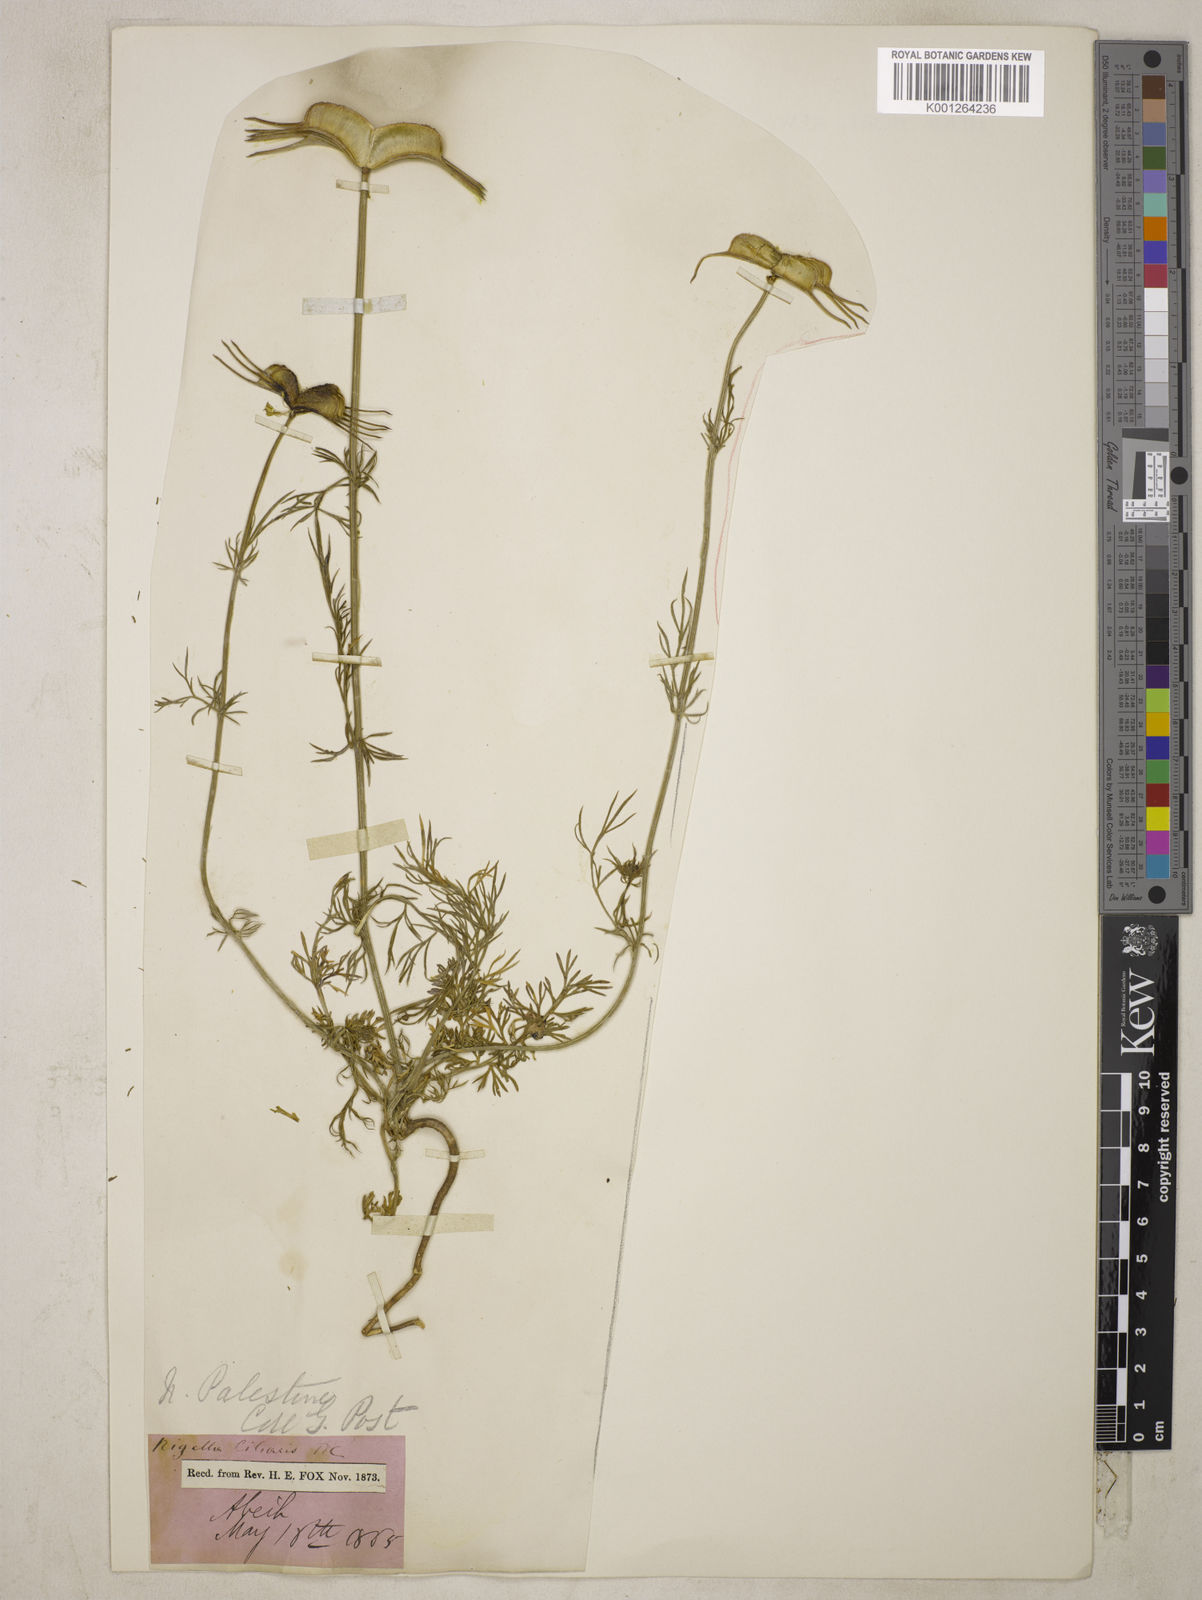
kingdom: Plantae
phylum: Tracheophyta
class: Magnoliopsida
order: Ranunculales
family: Ranunculaceae
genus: Nigella
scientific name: Nigella ciliaris
